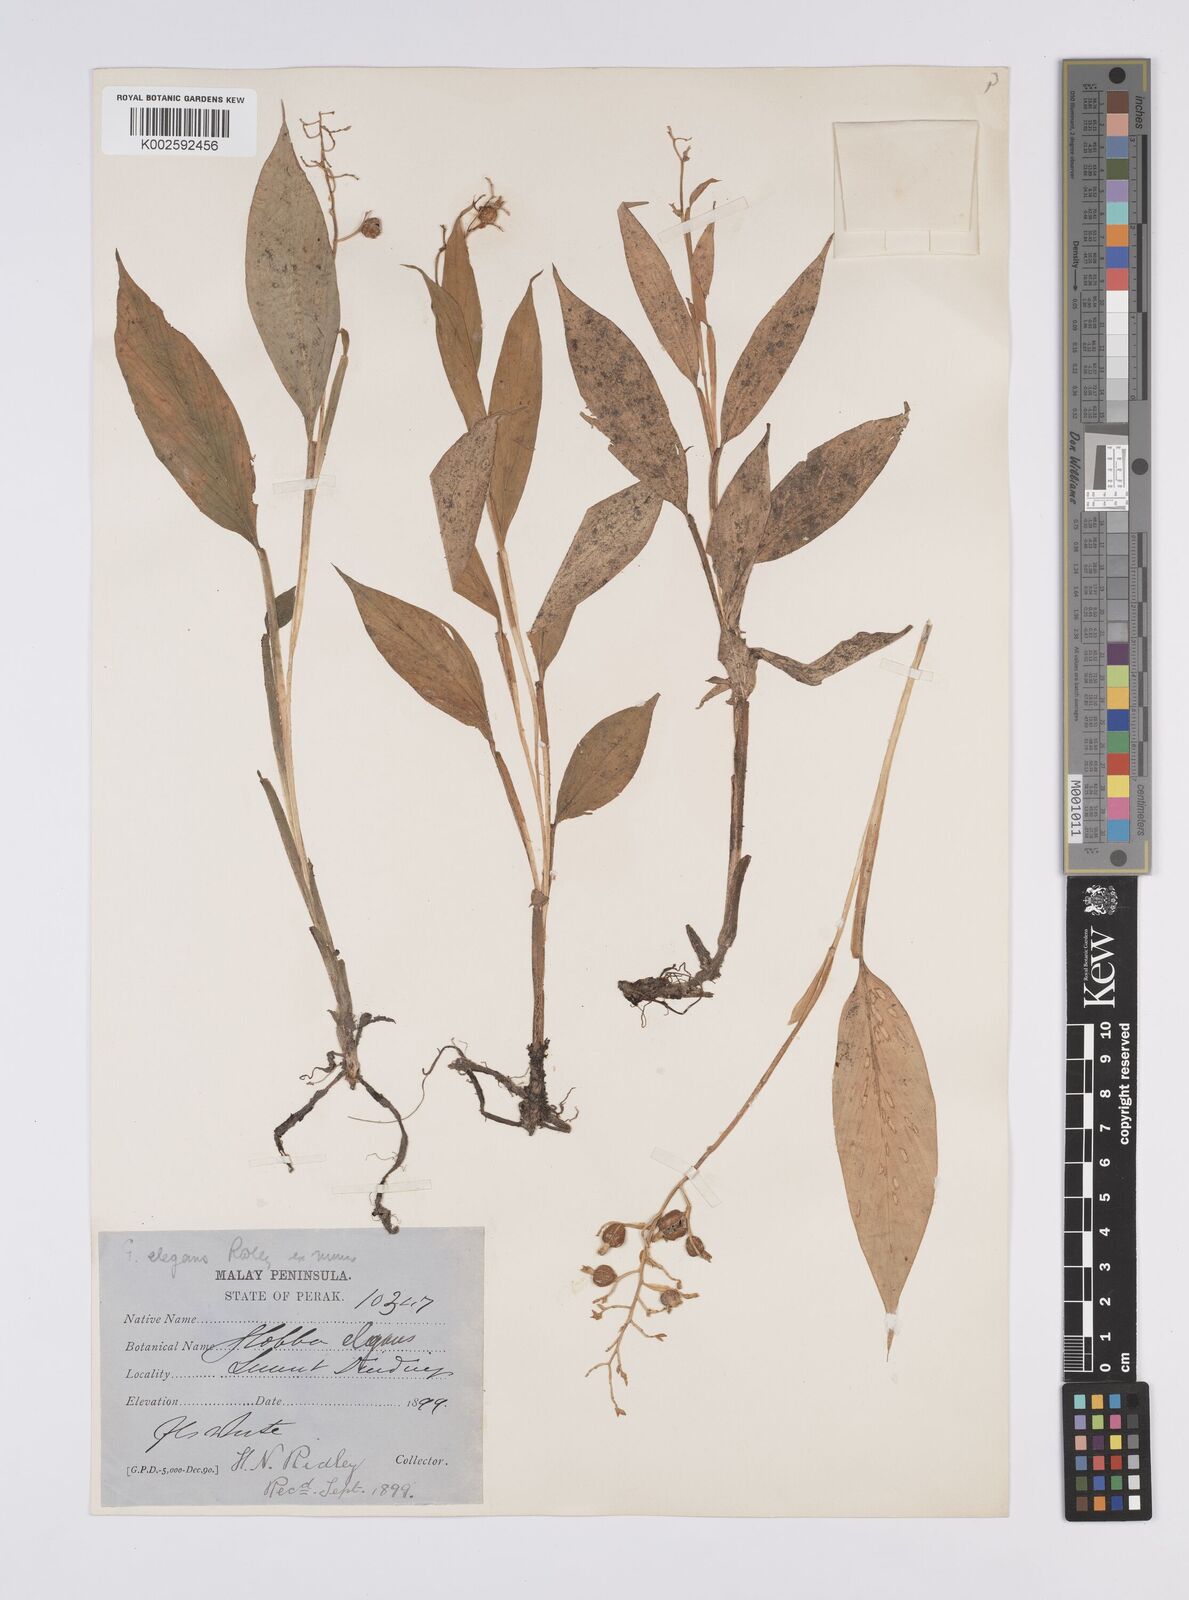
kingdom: Plantae
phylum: Tracheophyta
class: Liliopsida
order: Zingiberales
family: Zingiberaceae
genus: Globba
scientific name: Globba pendula
